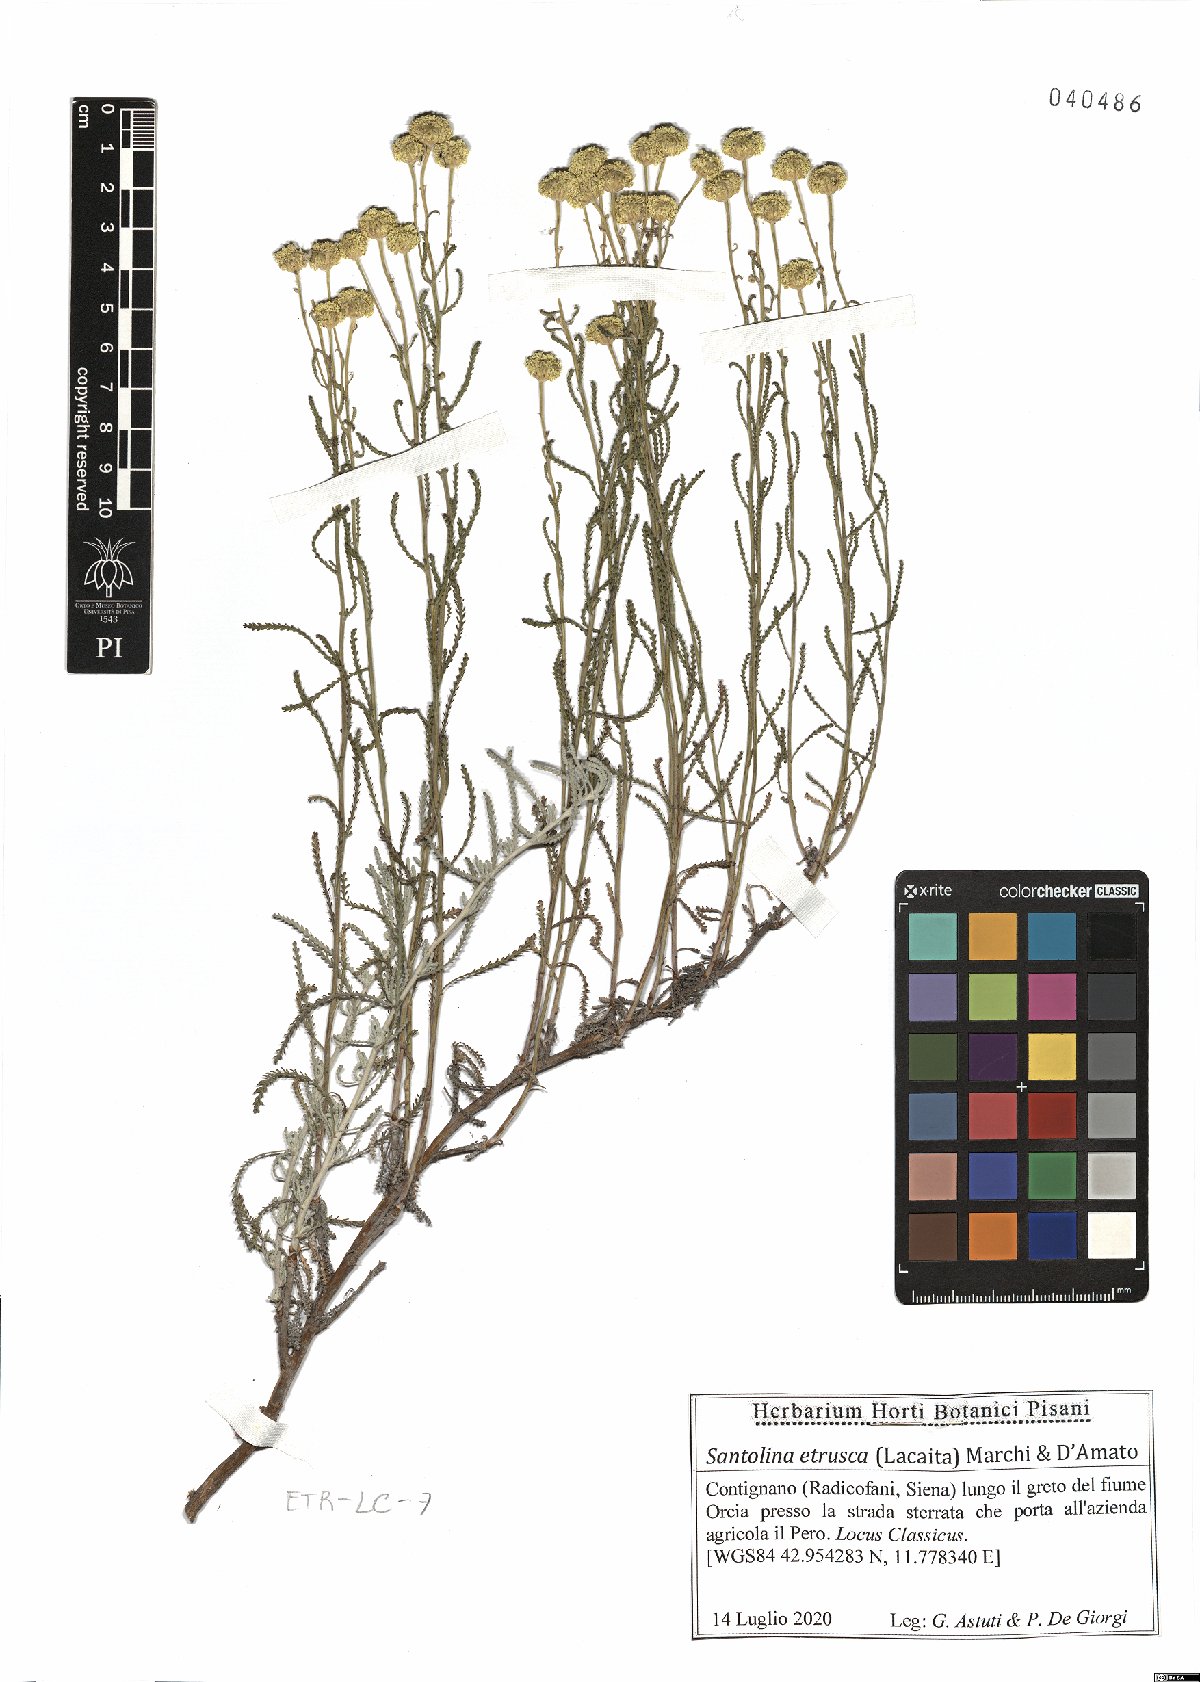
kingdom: Plantae
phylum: Tracheophyta
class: Magnoliopsida
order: Asterales
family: Asteraceae
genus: Santolina
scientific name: Santolina etrusca
